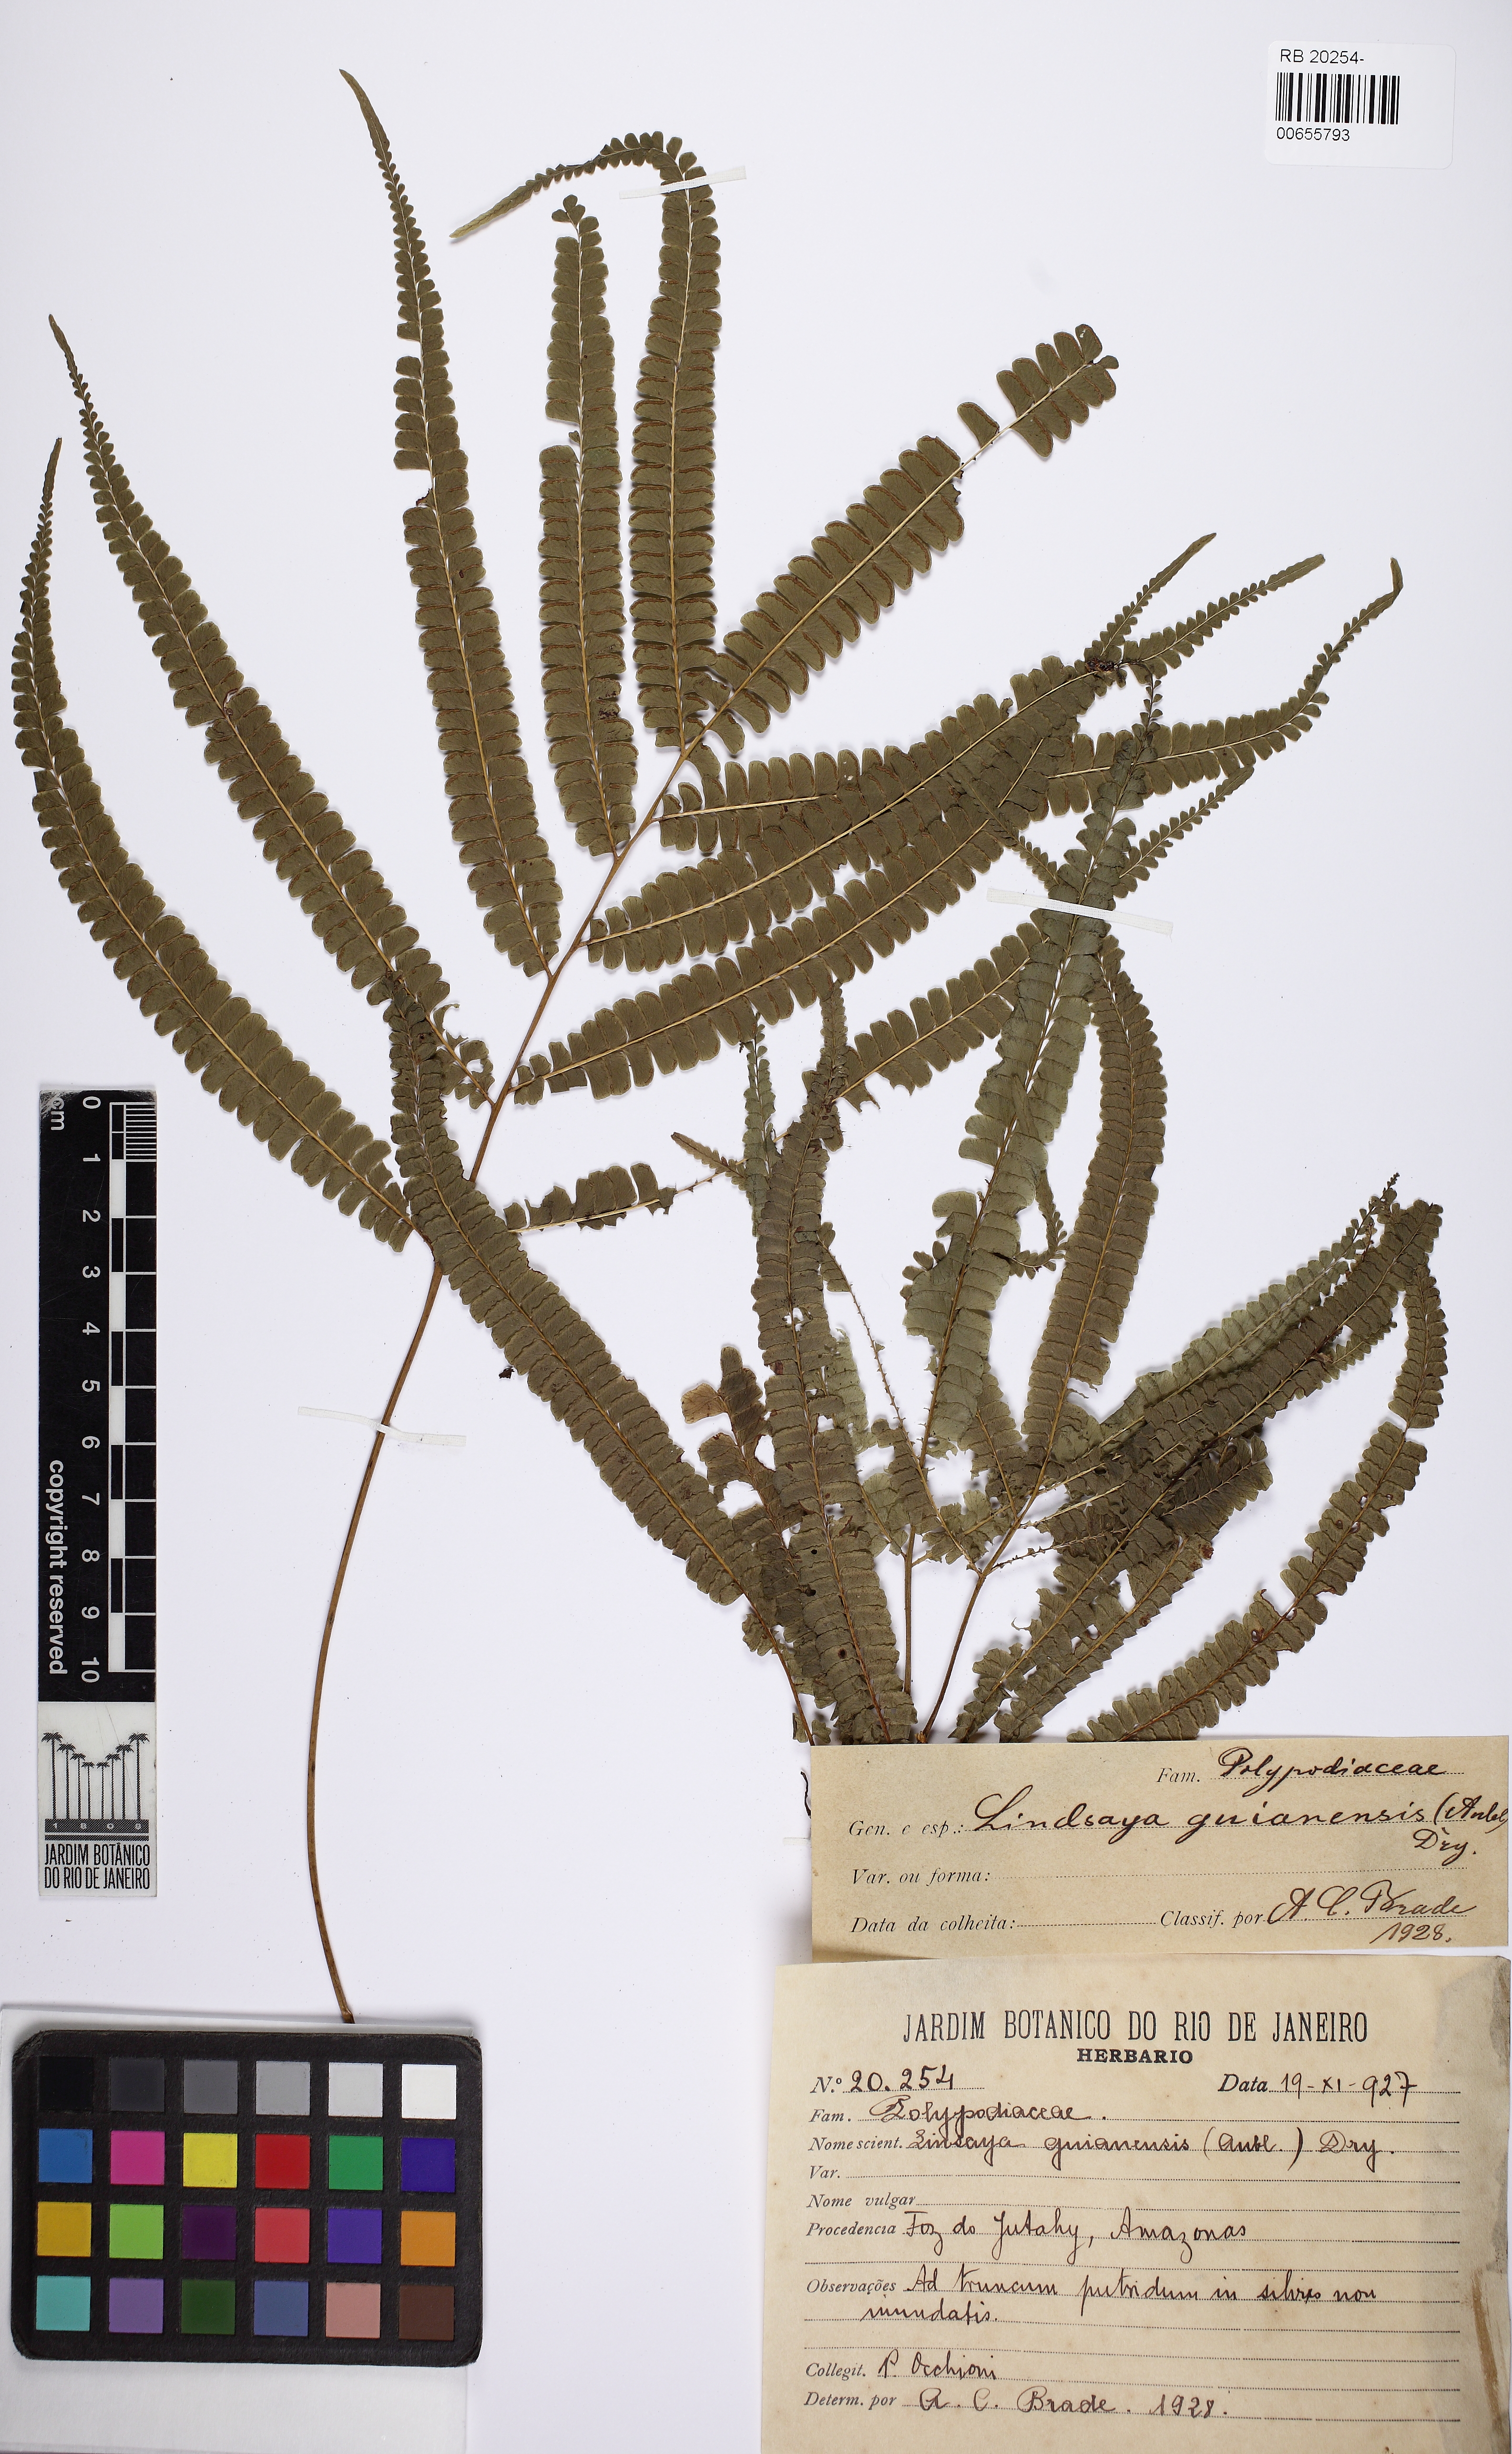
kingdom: Plantae
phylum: Tracheophyta
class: Polypodiopsida
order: Polypodiales
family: Lindsaeaceae
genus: Lindsaea
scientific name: Lindsaea guianensis
